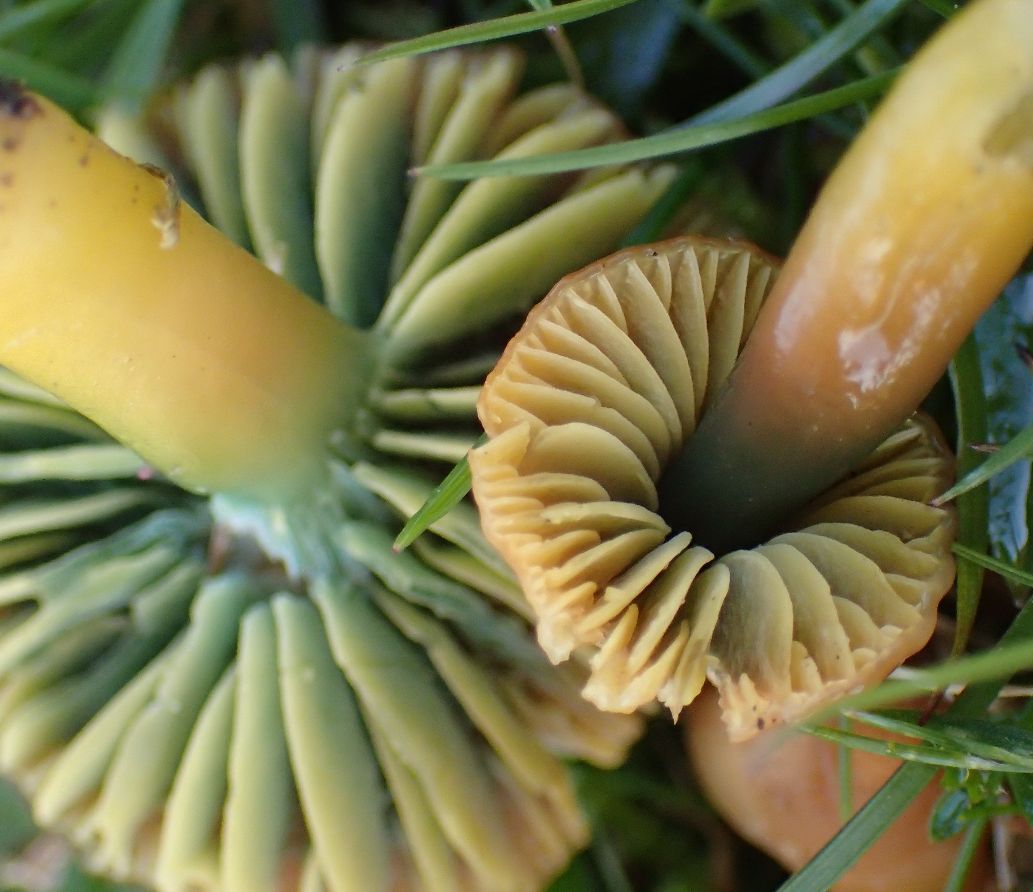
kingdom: Fungi
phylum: Basidiomycota
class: Agaricomycetes
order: Agaricales
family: Hygrophoraceae
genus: Gliophorus
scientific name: Gliophorus psittacinus
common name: papegøje-vokshat
